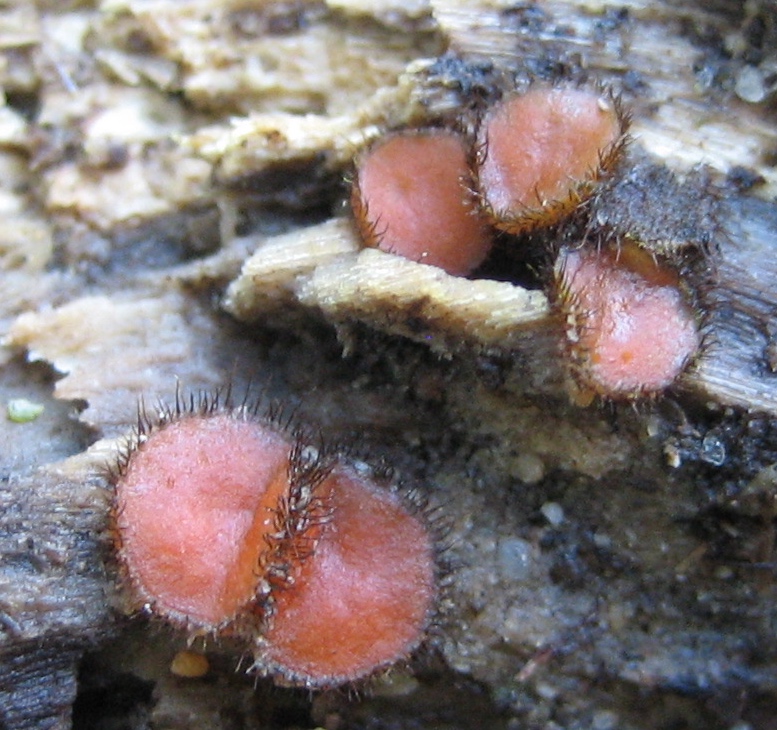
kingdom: Fungi
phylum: Ascomycota
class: Pezizomycetes
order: Pezizales
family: Pyronemataceae
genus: Scutellinia
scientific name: Scutellinia scutellata
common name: frynset skjoldbæger
